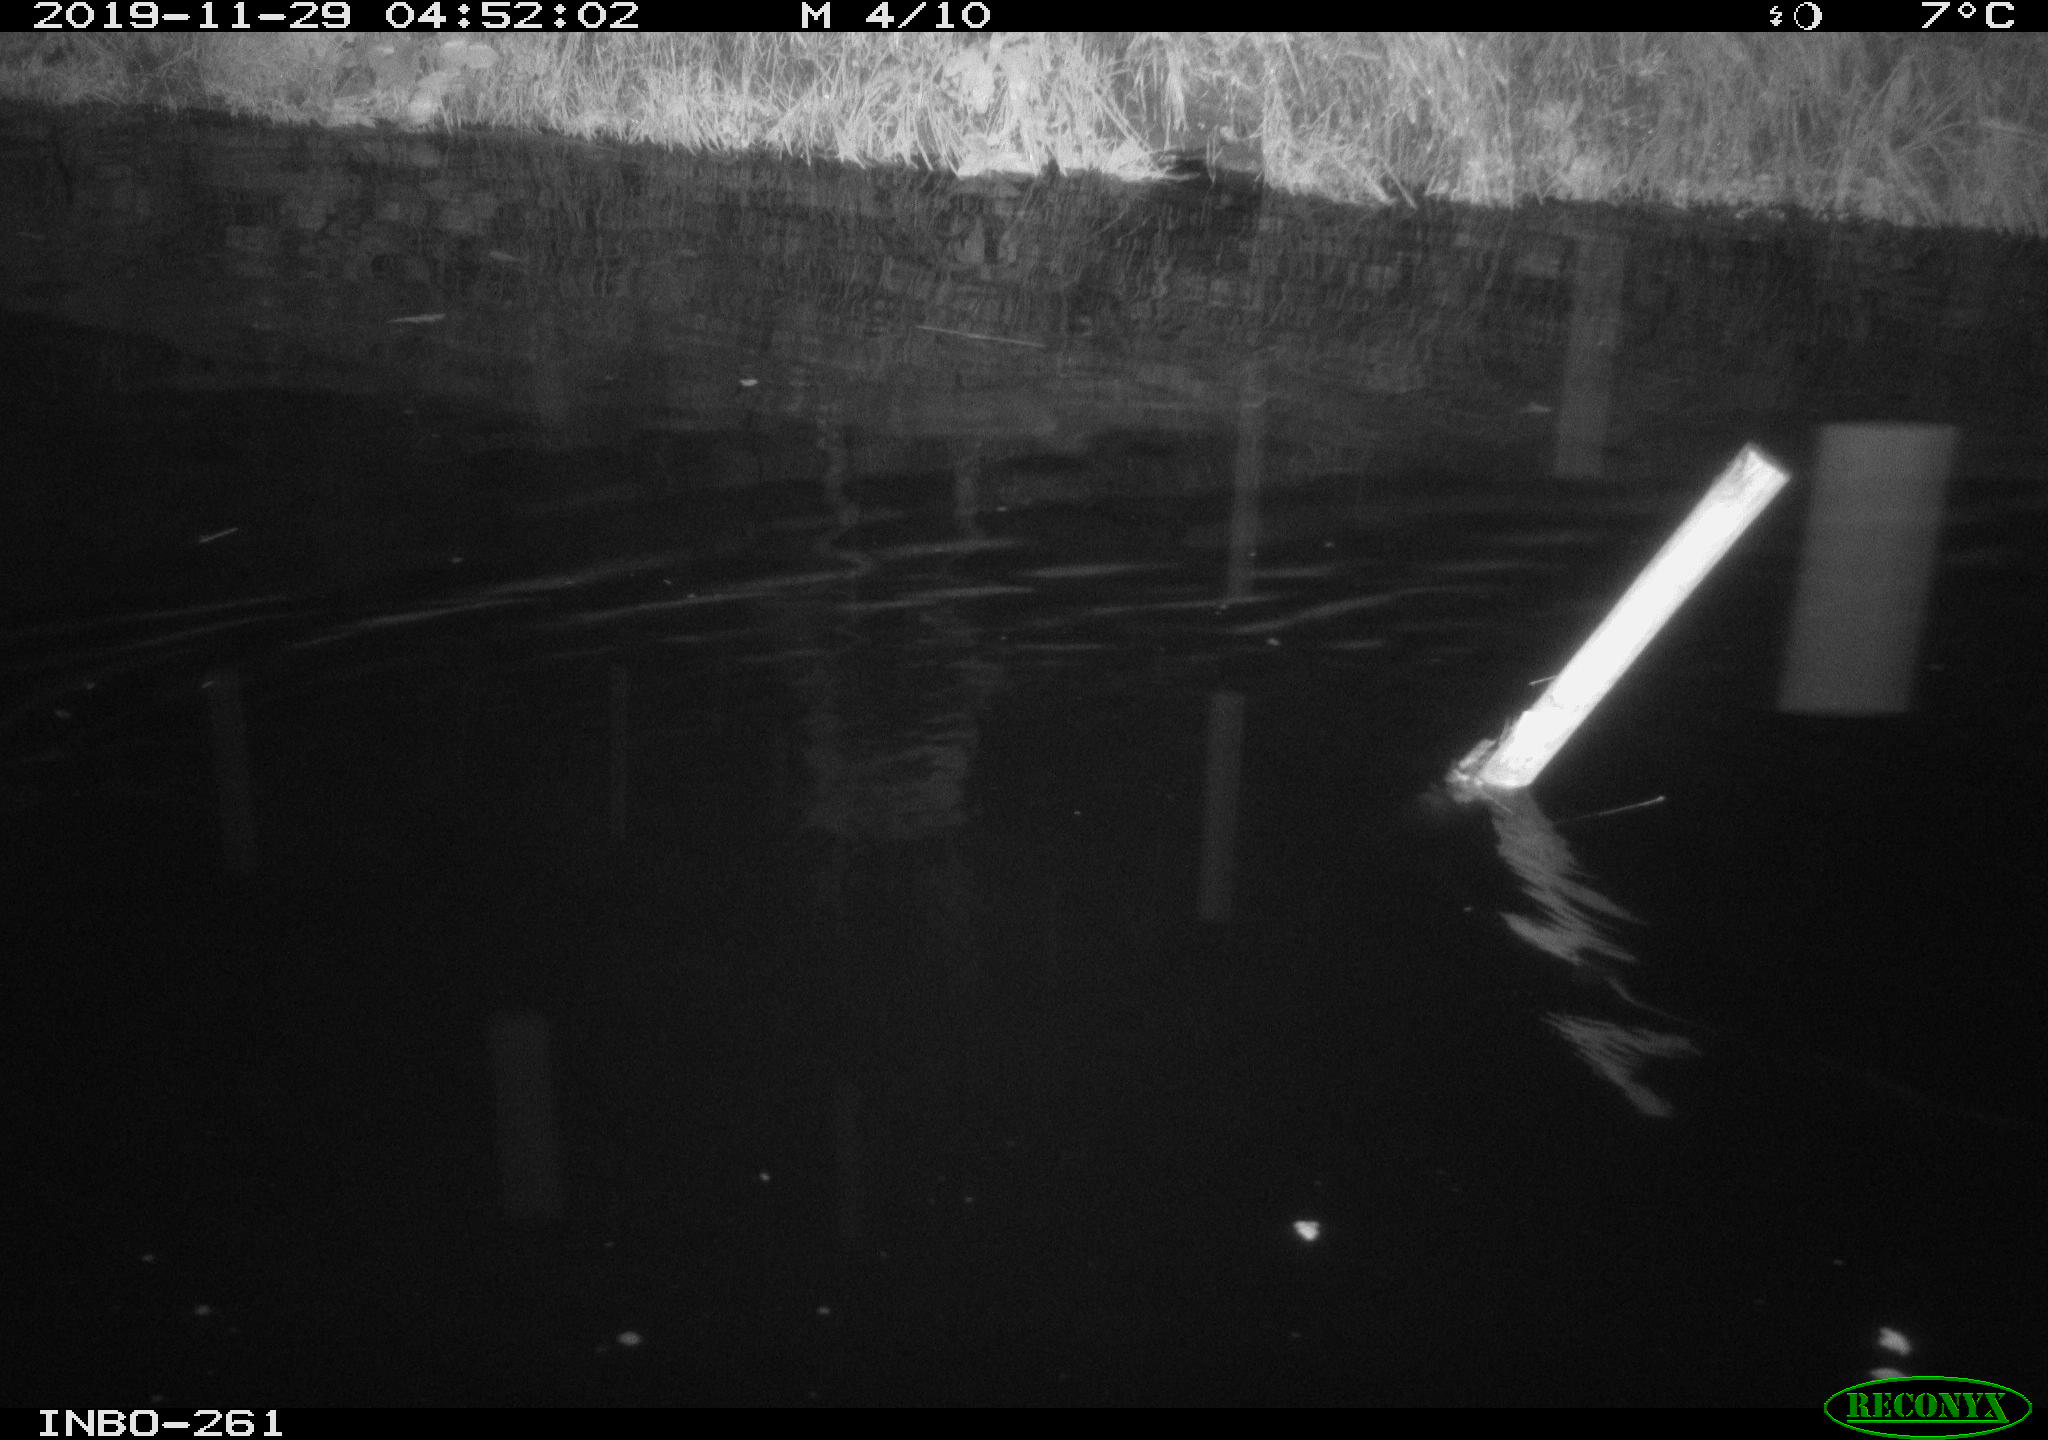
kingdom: Animalia
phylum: Chordata
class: Aves
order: Anseriformes
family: Anatidae
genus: Anas
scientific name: Anas platyrhynchos
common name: Mallard
